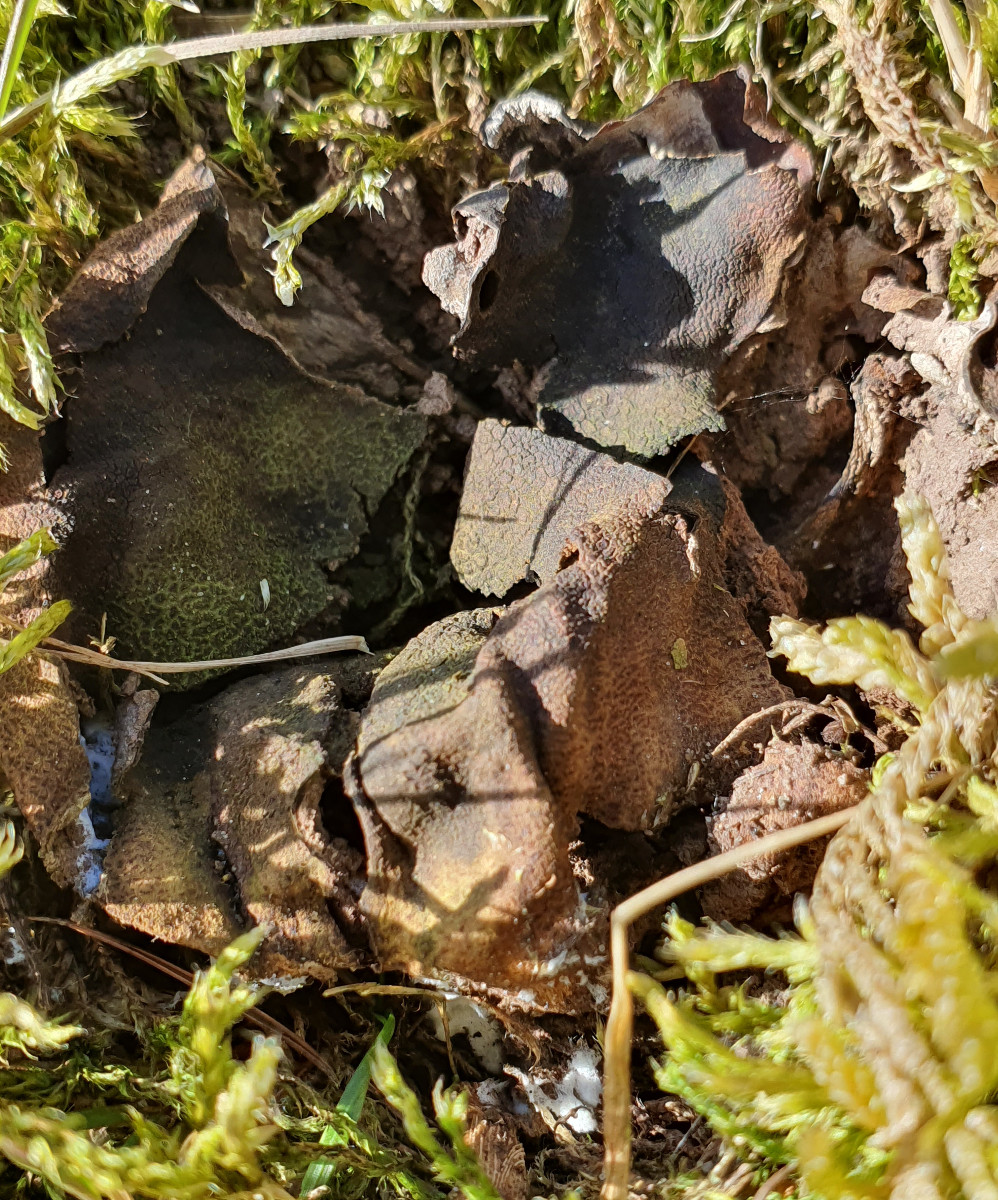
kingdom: Fungi
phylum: Basidiomycota
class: Agaricomycetes
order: Agaricales
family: Lycoperdaceae
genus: Bovistella
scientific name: Bovistella utriformis
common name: skællet støvbold
